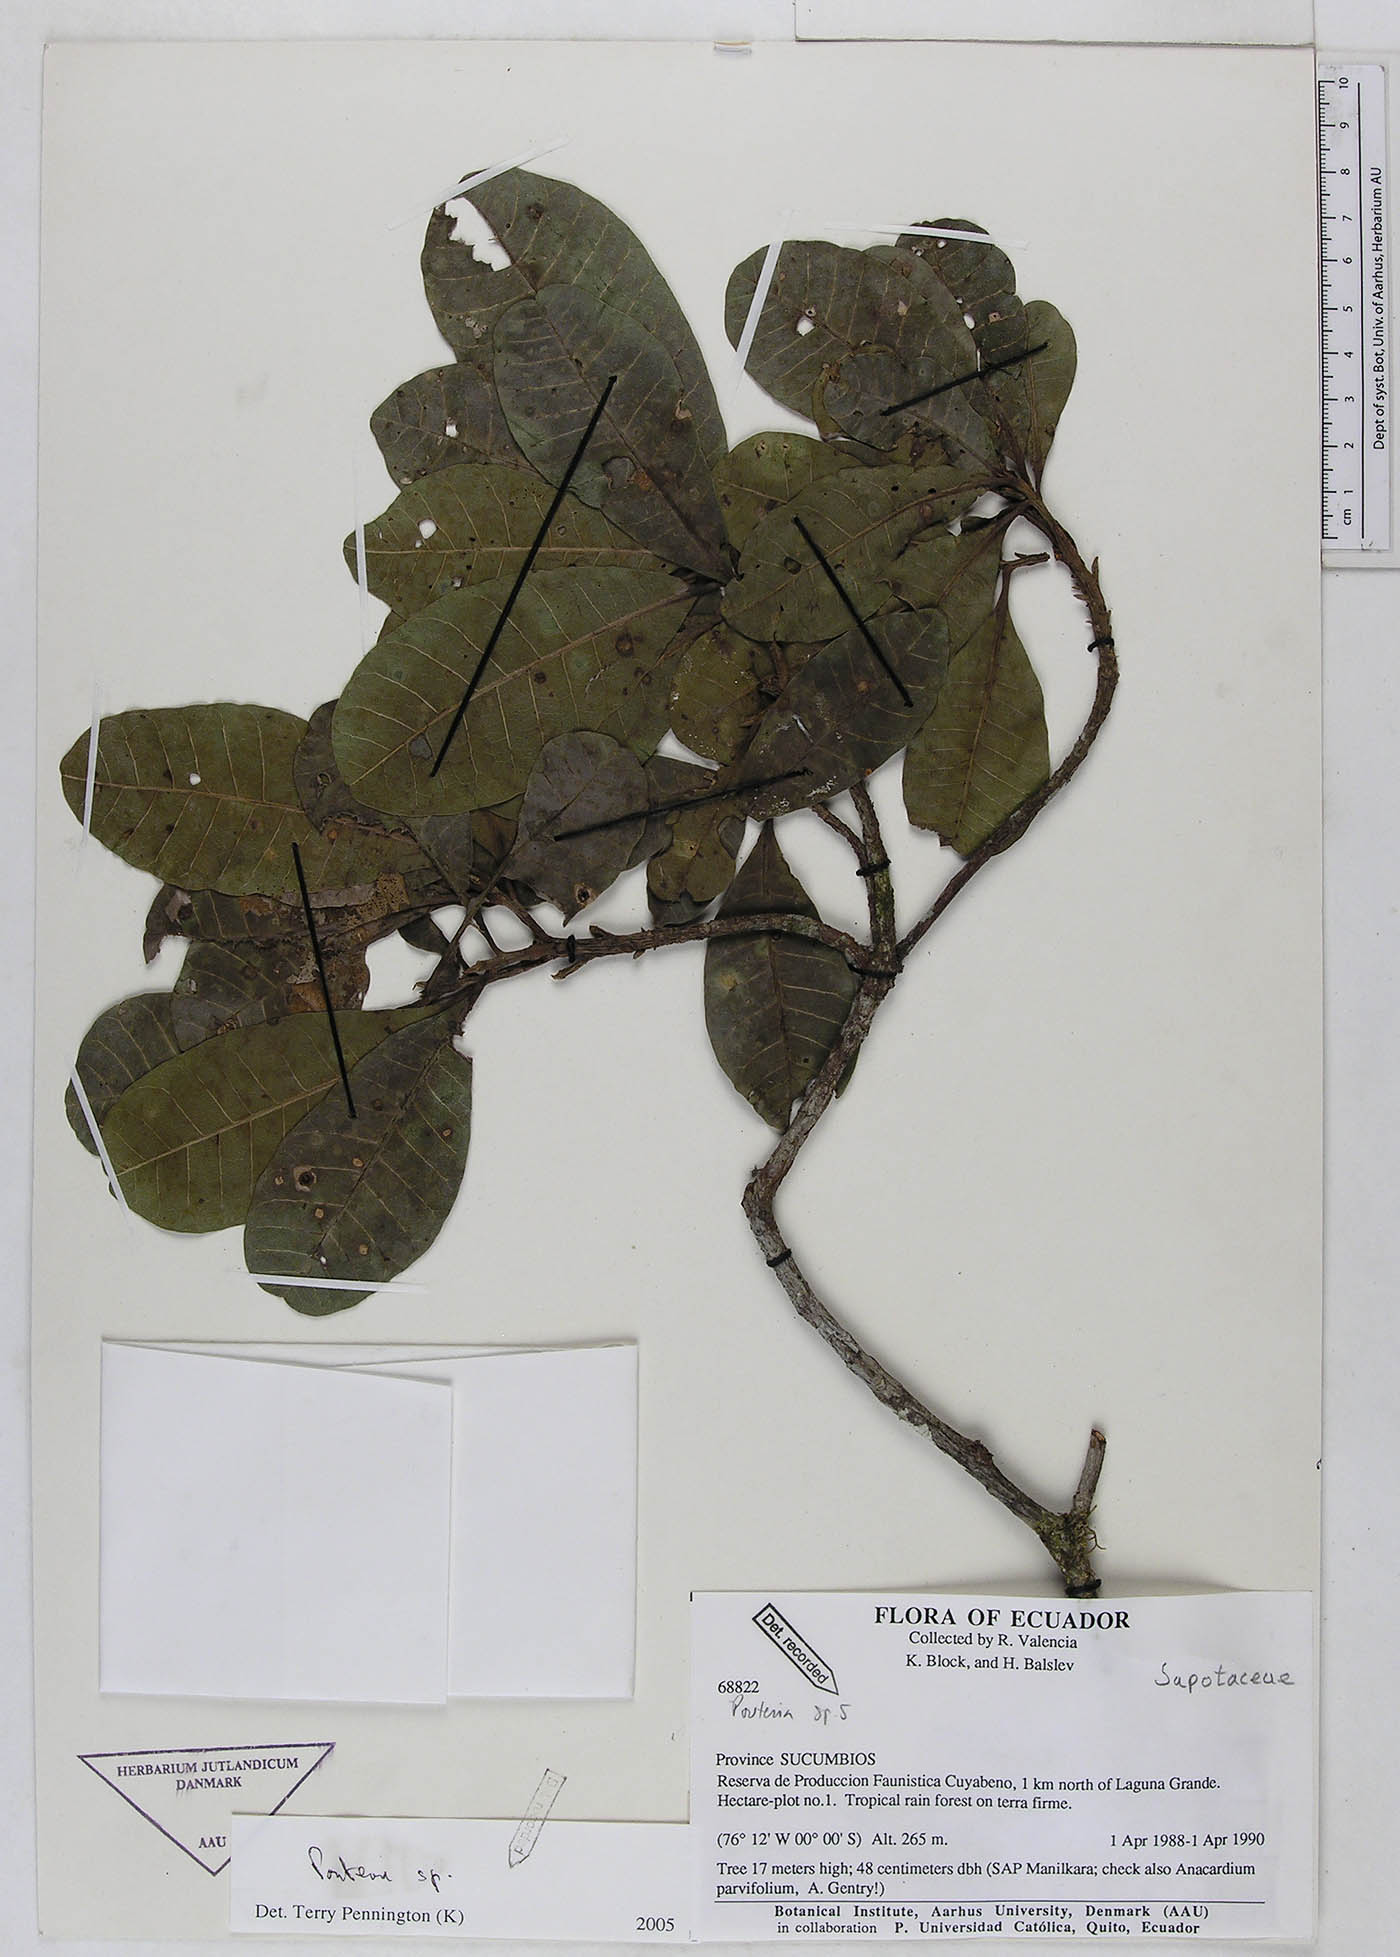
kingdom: Plantae
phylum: Tracheophyta
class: Magnoliopsida
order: Ericales
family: Sapotaceae
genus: Pouteria
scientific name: Pouteria
